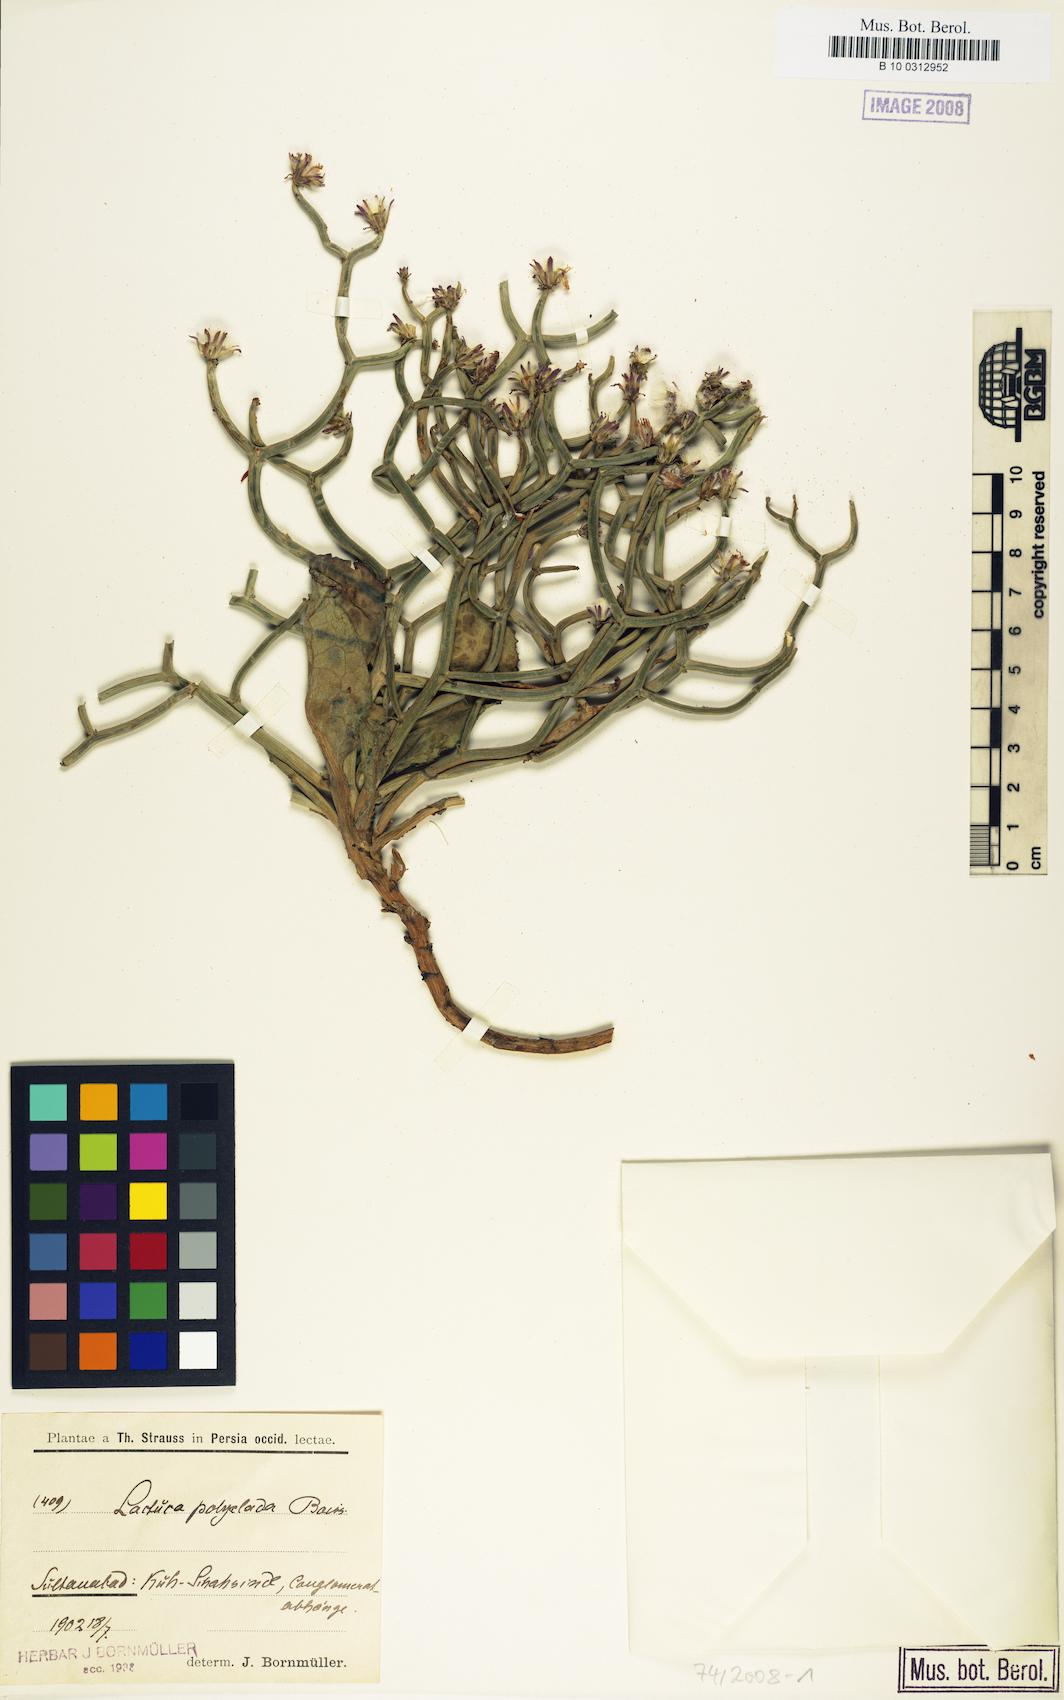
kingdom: Plantae
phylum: Tracheophyta
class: Magnoliopsida
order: Asterales
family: Asteraceae
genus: Lactuca
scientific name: Lactuca polyclada
